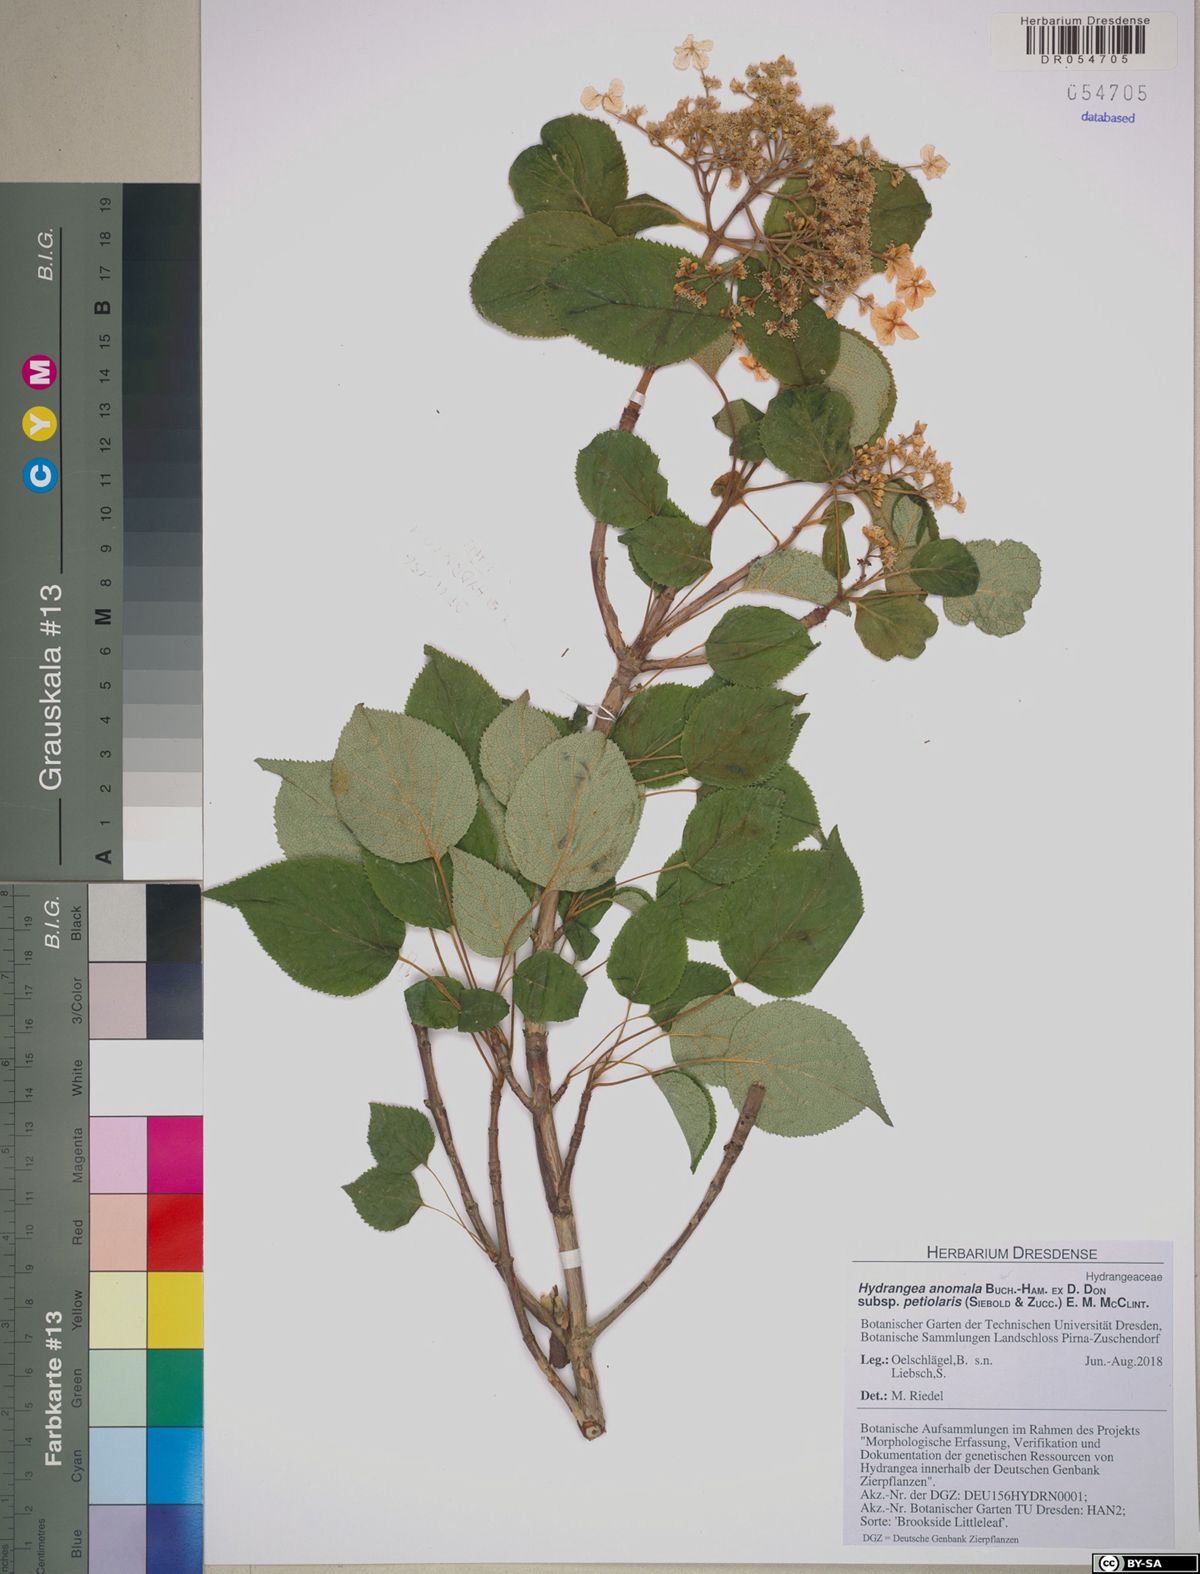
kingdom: Plantae
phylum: Tracheophyta
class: Magnoliopsida
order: Cornales
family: Hydrangeaceae
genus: Hydrangea
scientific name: Hydrangea petiolaris
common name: Japanese climbing hydrangea
